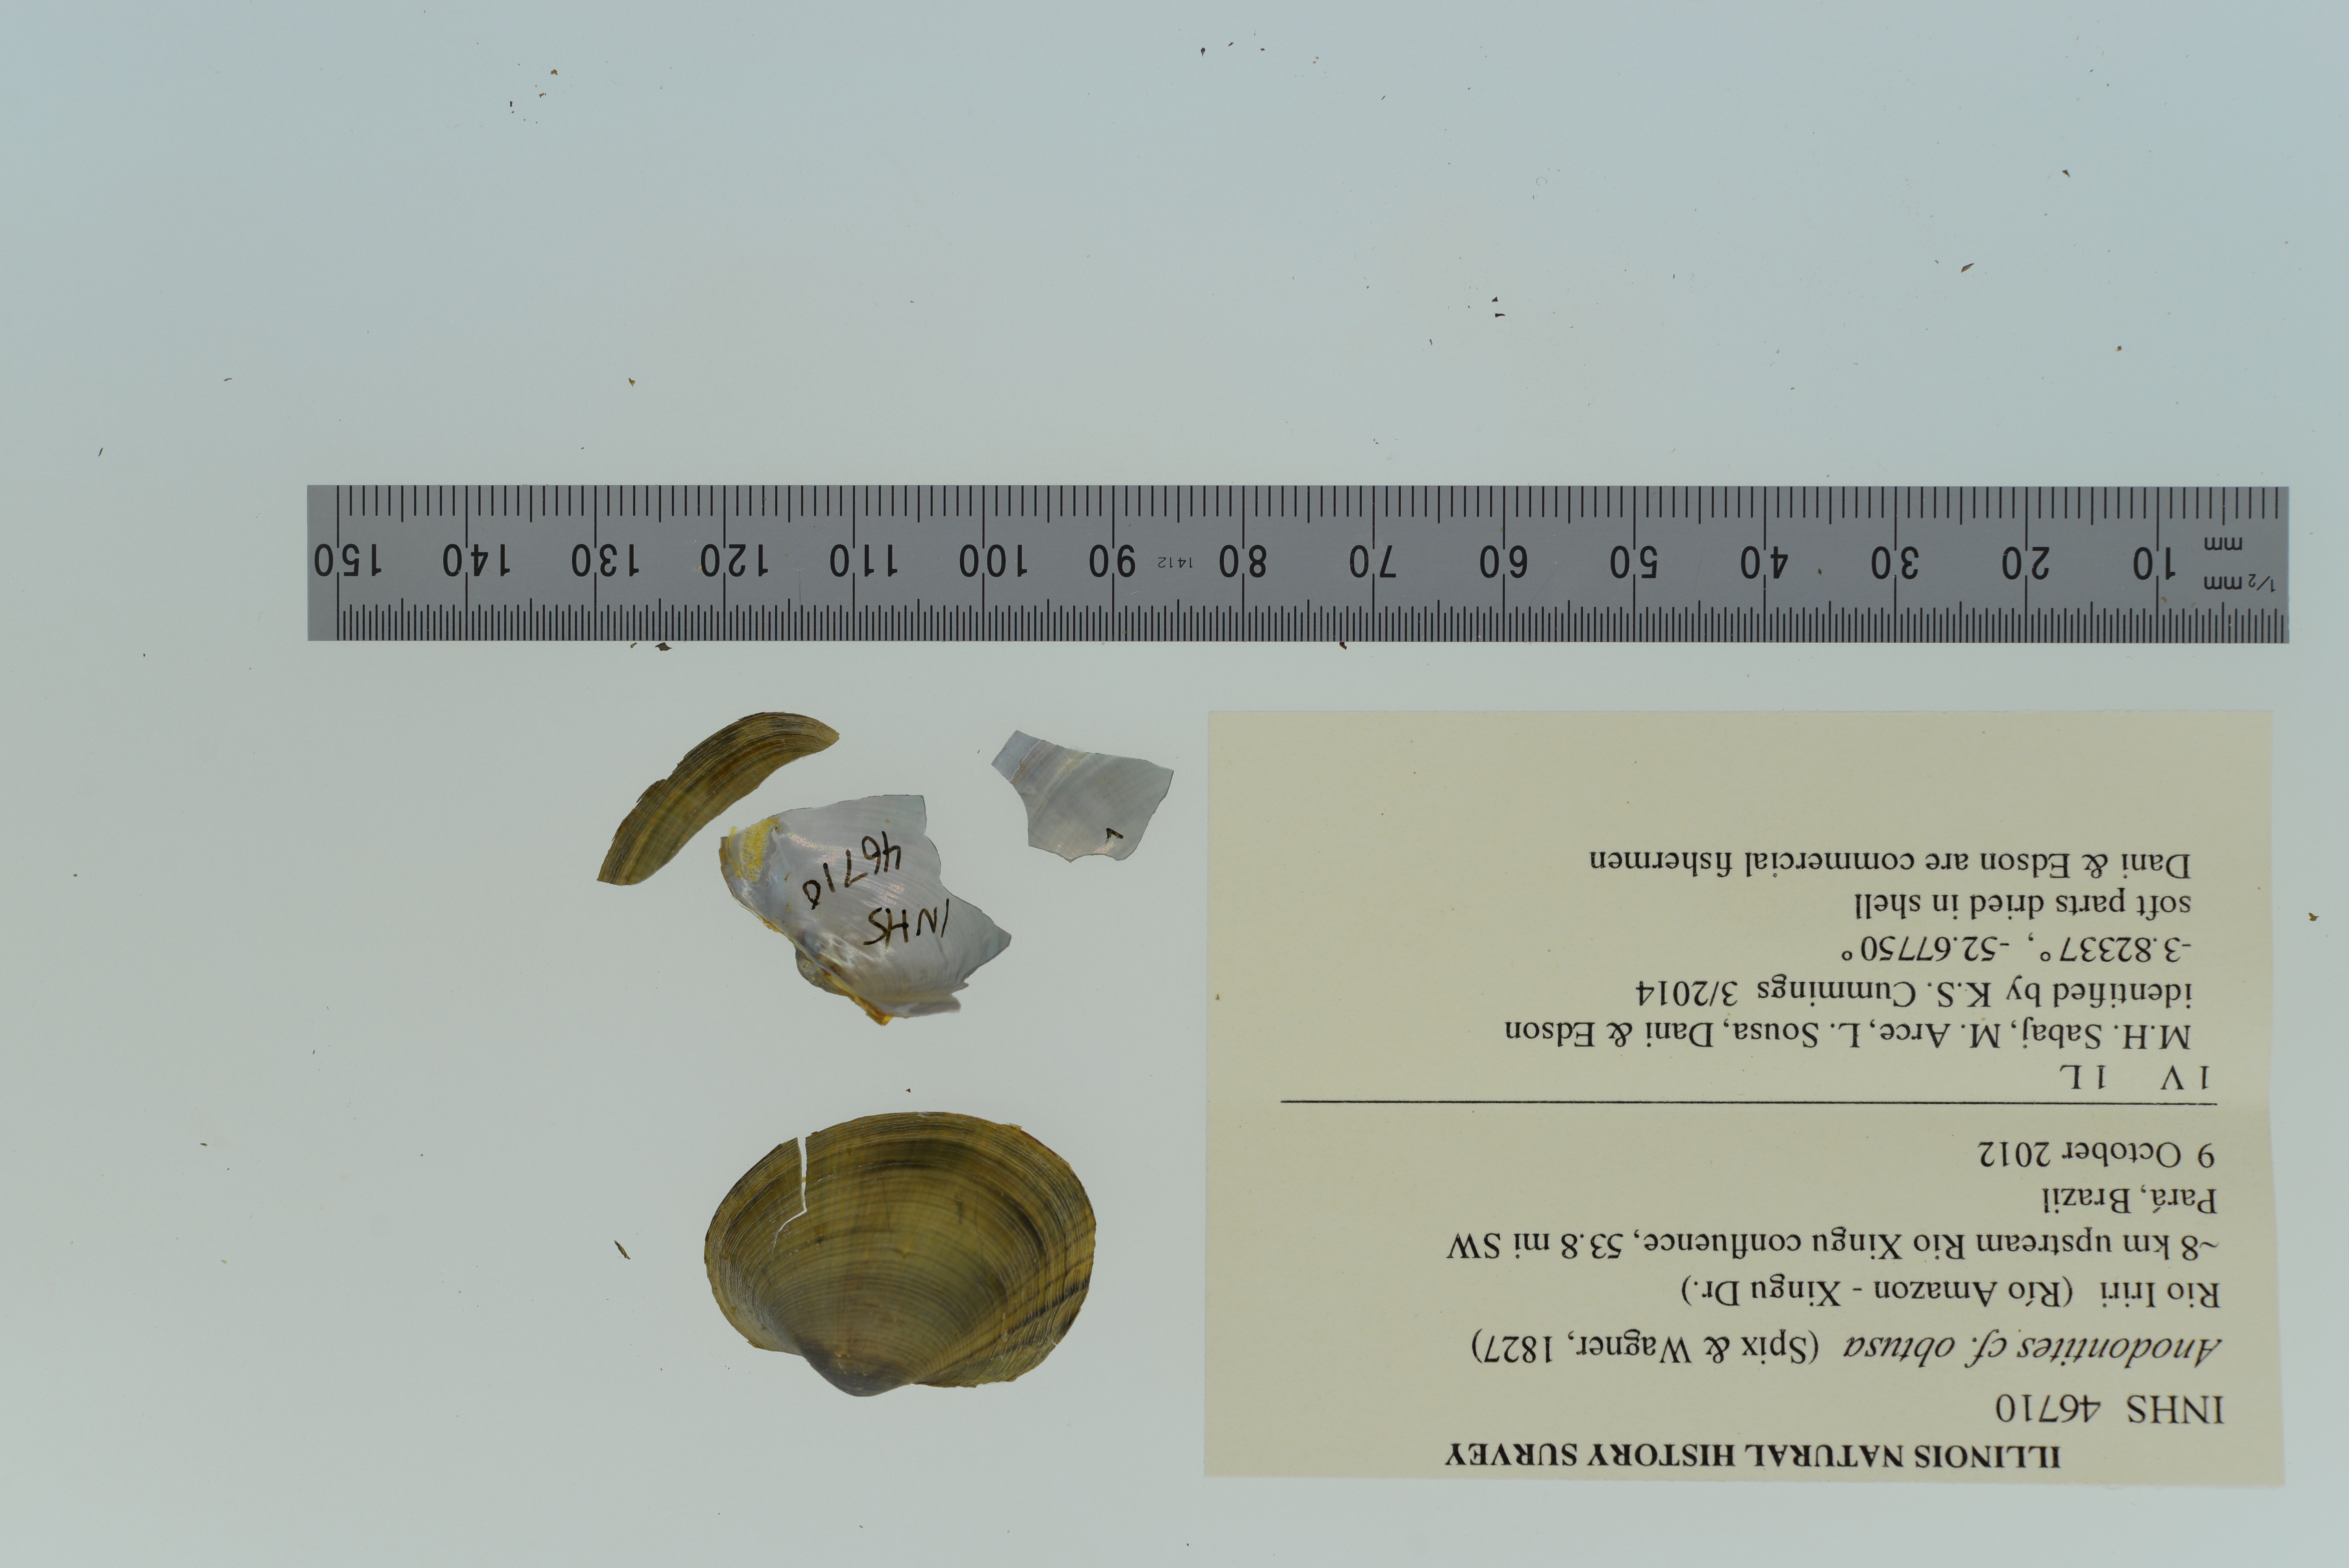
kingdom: Animalia
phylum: Mollusca
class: Bivalvia
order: Unionida
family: Mycetopodidae
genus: Anodontites
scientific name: Anodontites
